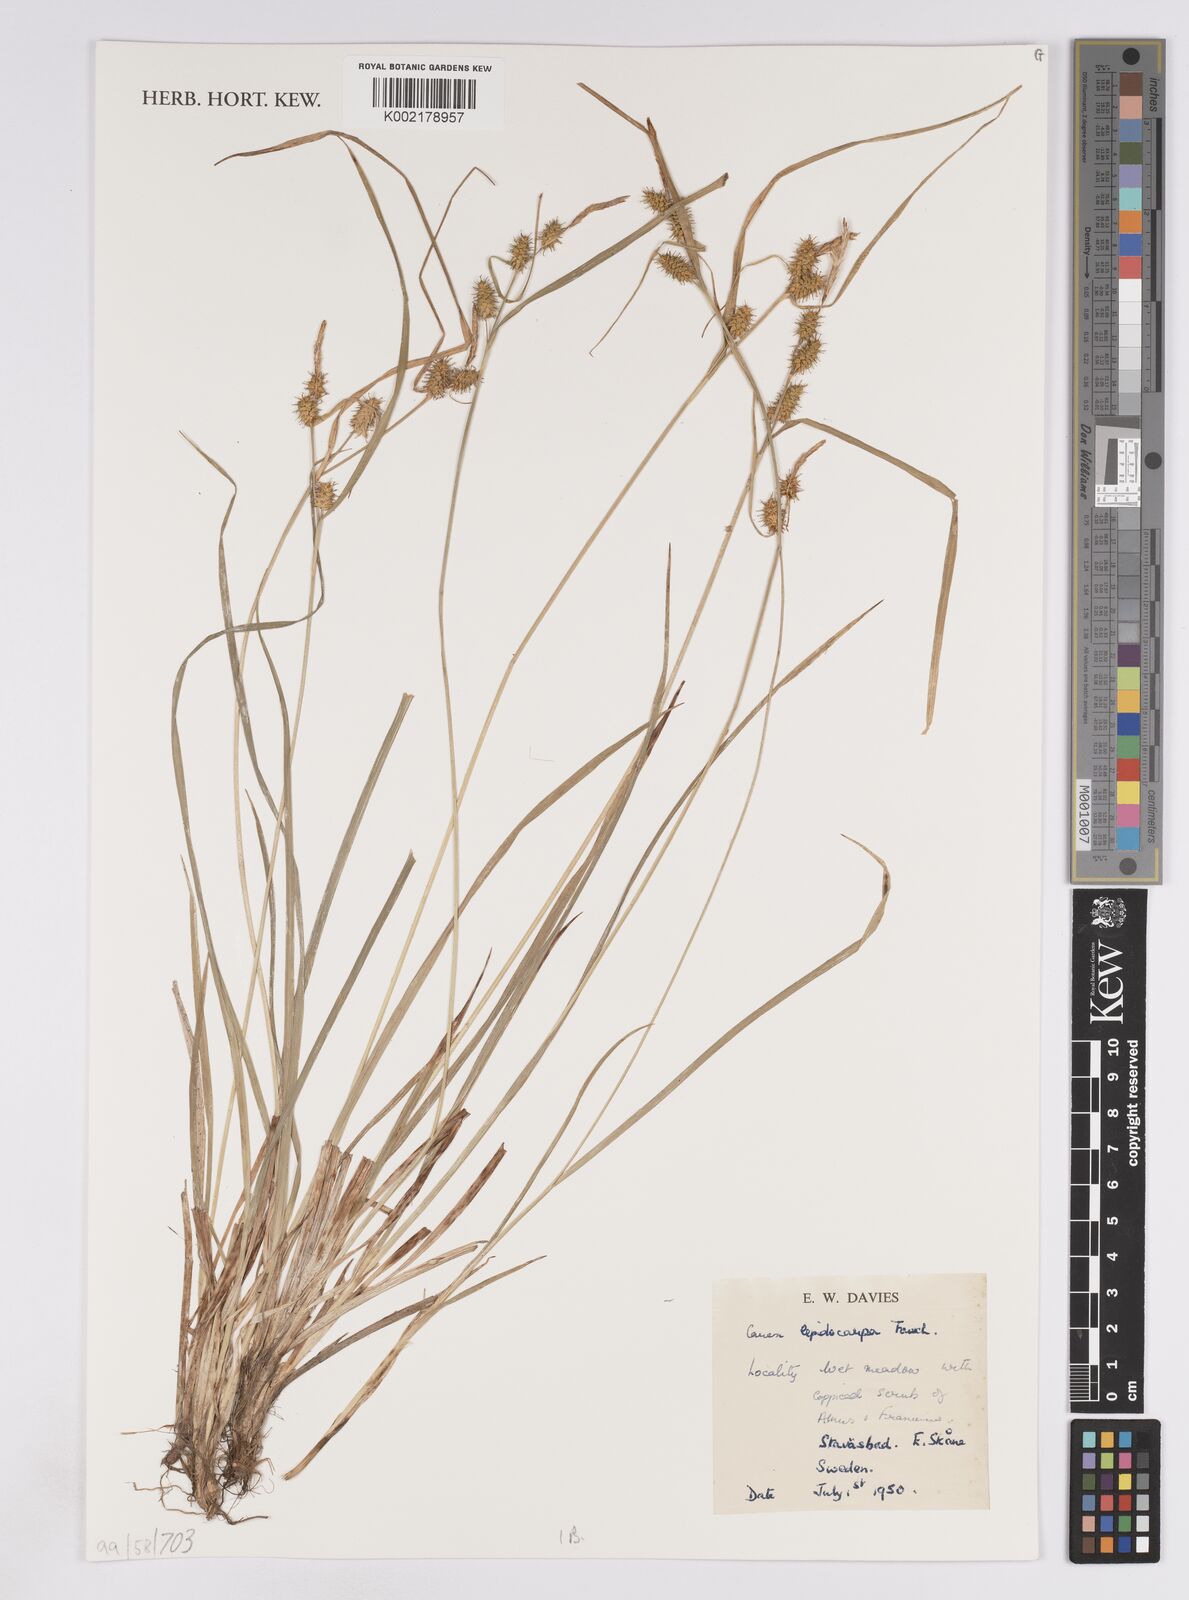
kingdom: Plantae
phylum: Tracheophyta
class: Liliopsida
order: Poales
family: Cyperaceae
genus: Carex
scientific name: Carex lepidocarpa
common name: Long-stalked yellow-sedge
